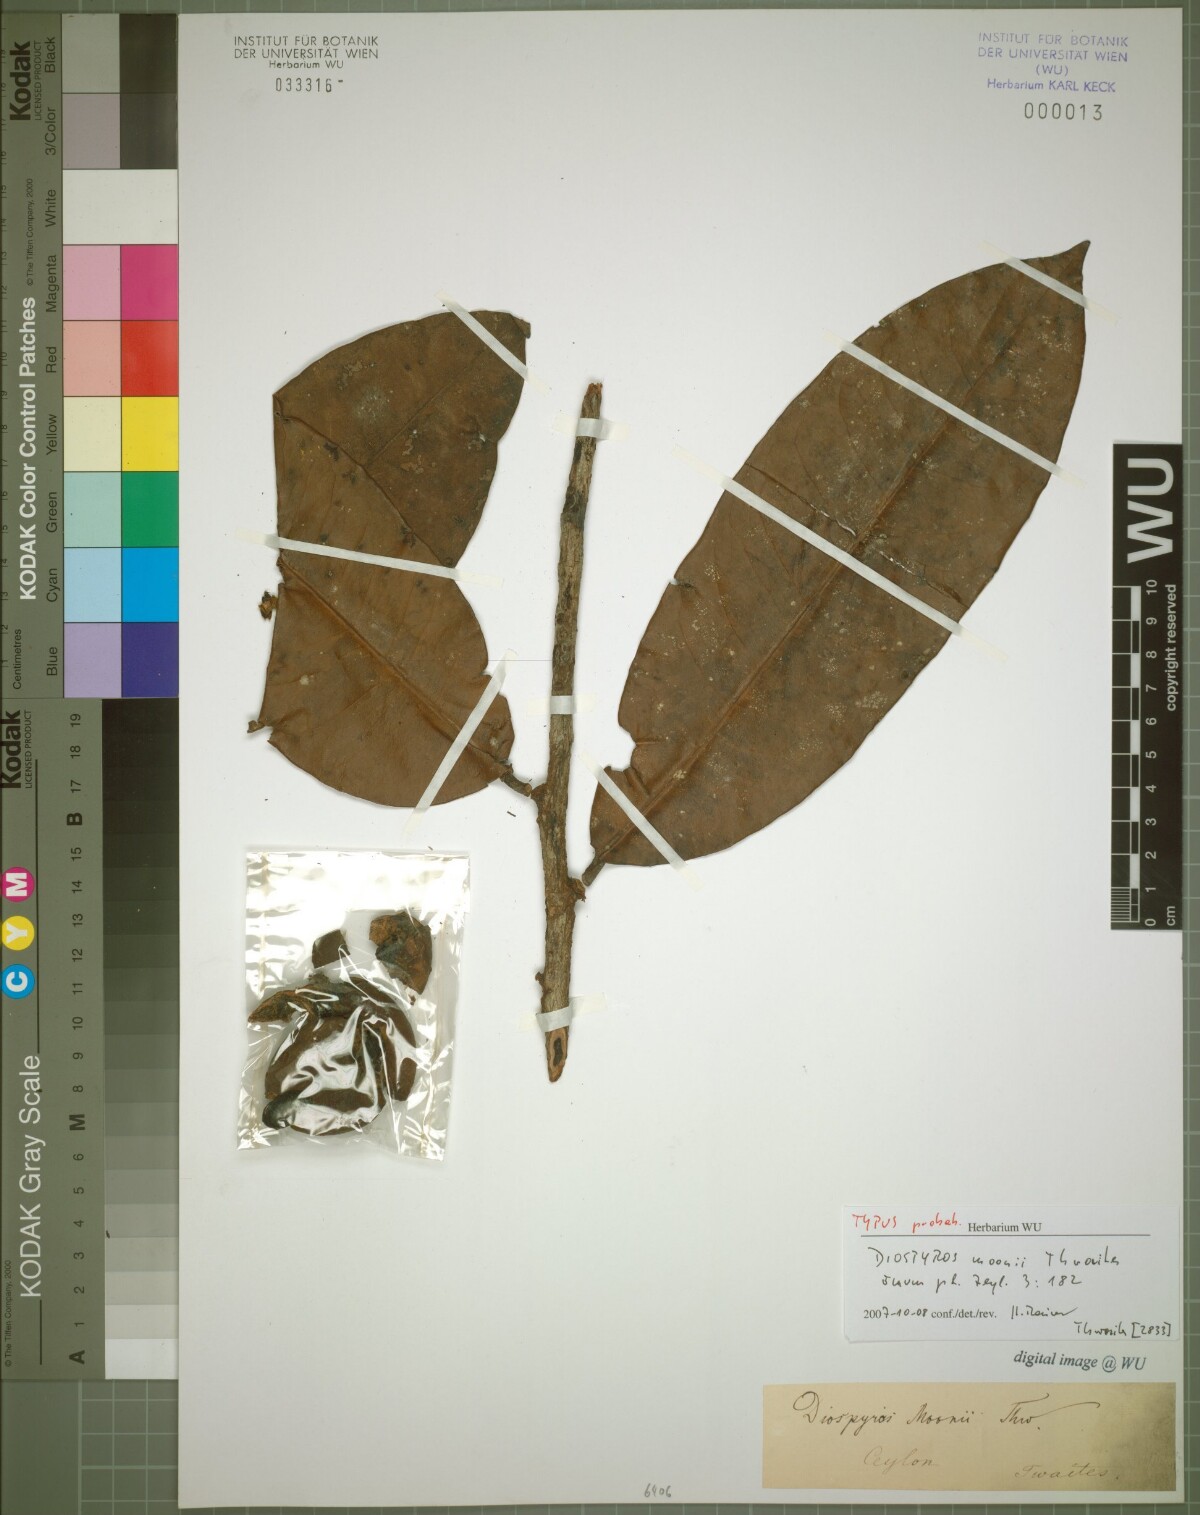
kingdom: Plantae
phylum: Tracheophyta
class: Magnoliopsida
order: Ericales
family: Ebenaceae
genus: Diospyros
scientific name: Diospyros moonii
